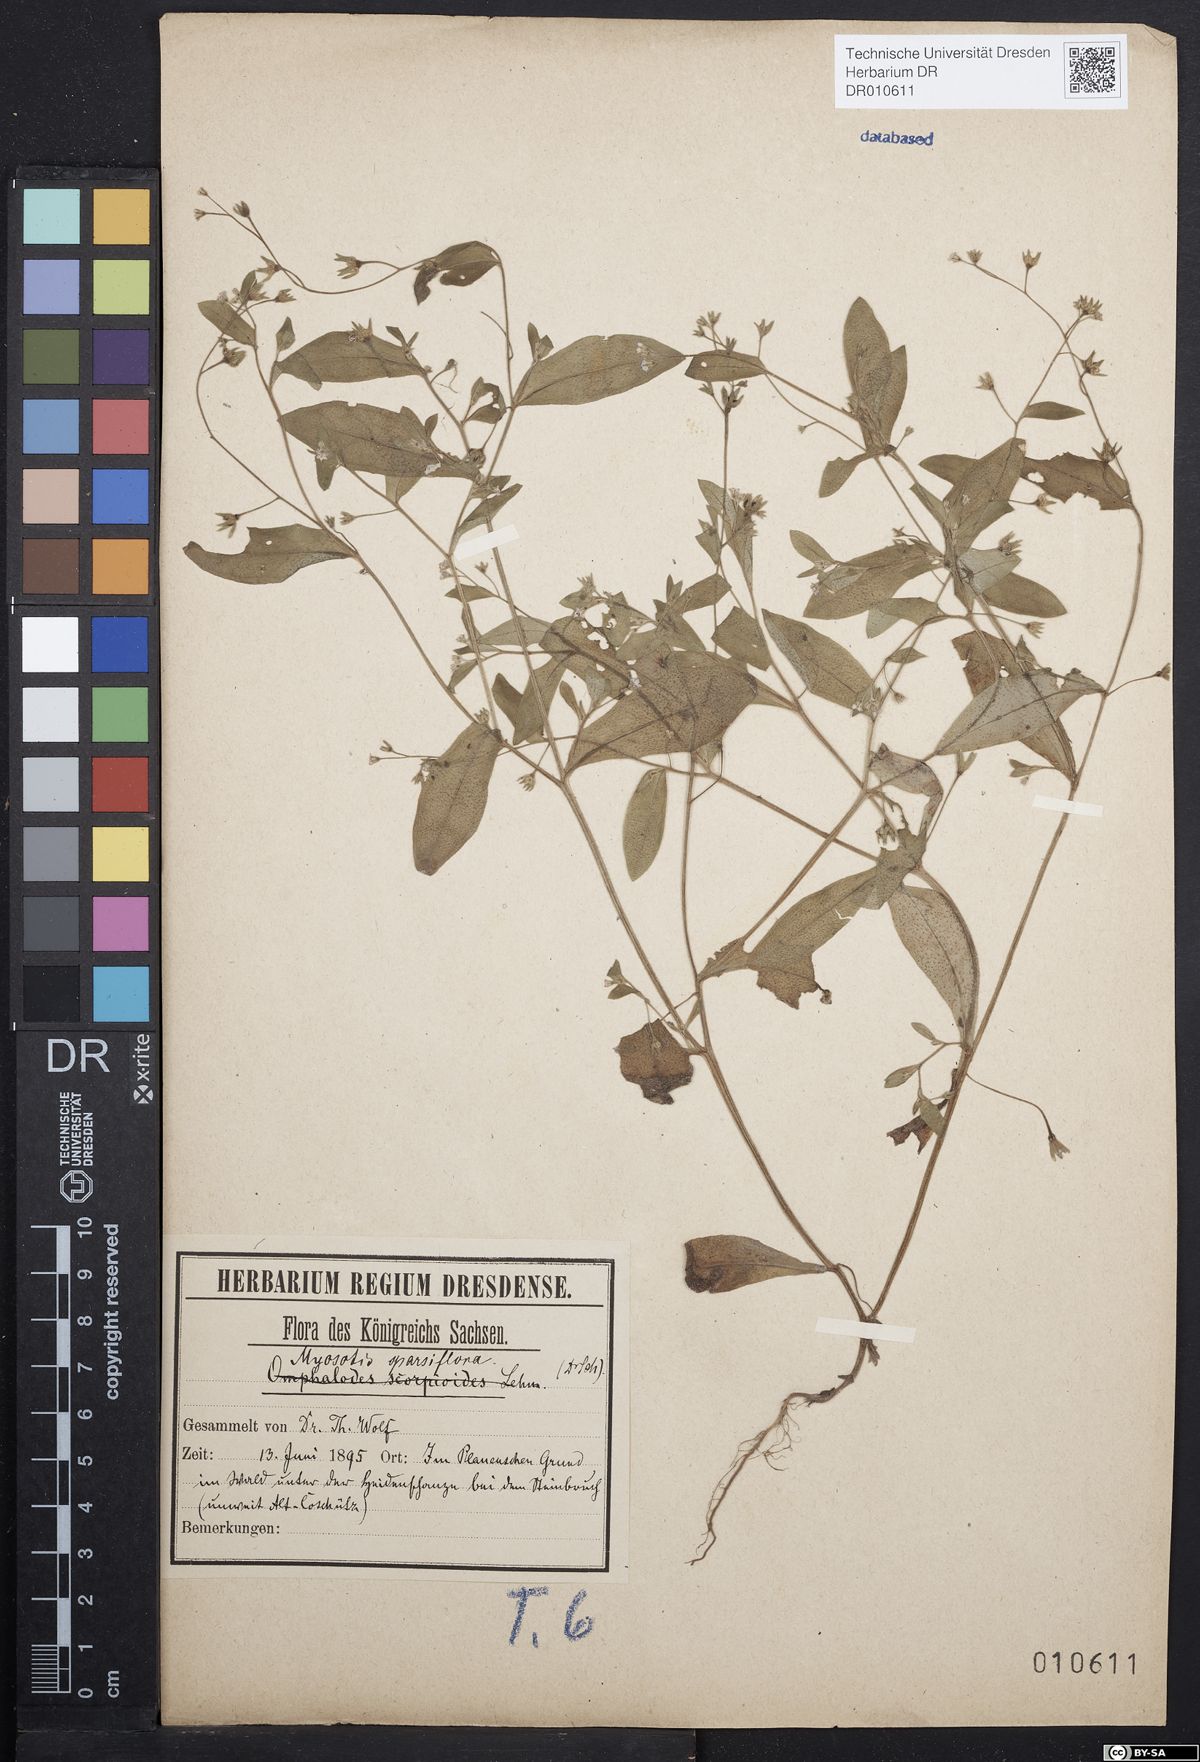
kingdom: Plantae
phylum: Tracheophyta
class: Magnoliopsida
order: Boraginales
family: Boraginaceae
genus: Myosotis
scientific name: Myosotis sparsiflora
